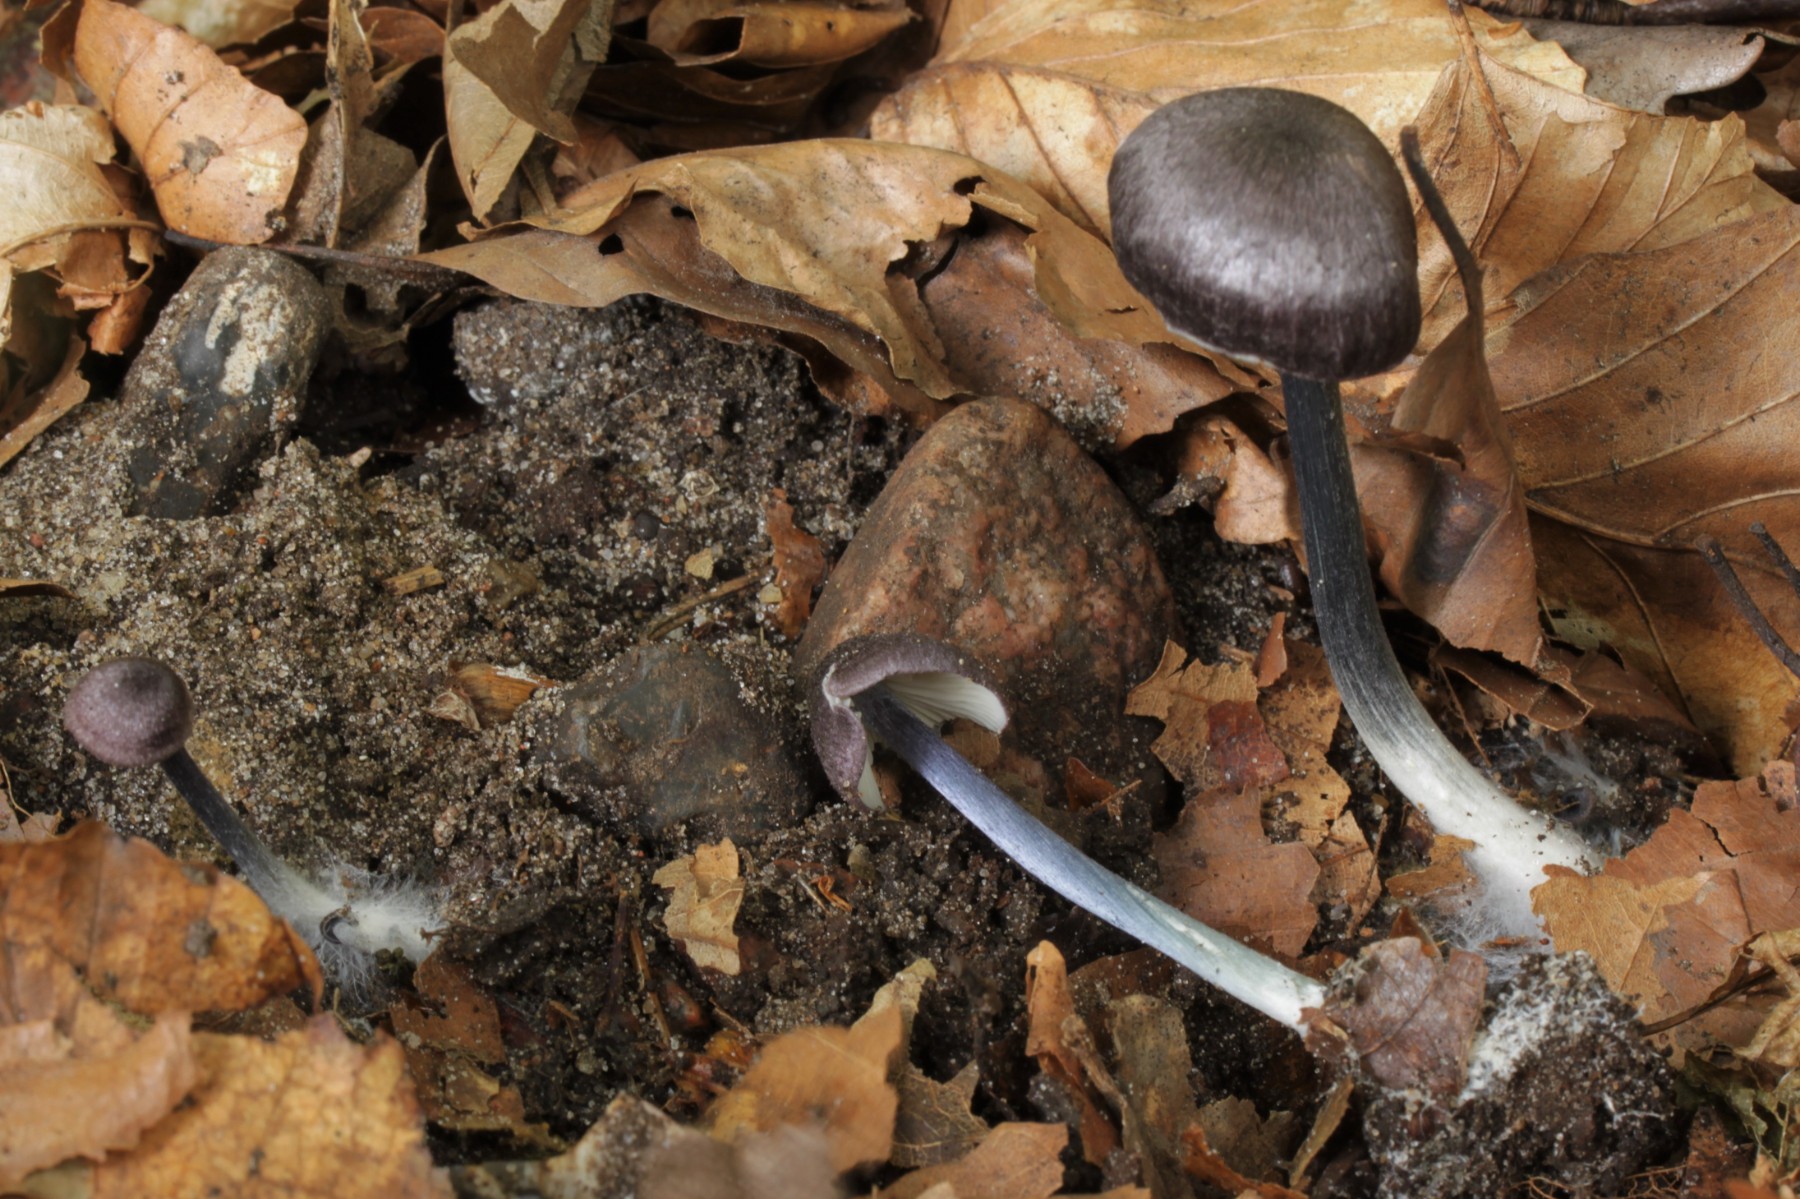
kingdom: Fungi
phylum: Basidiomycota
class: Agaricomycetes
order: Agaricales
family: Entolomataceae
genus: Entoloma
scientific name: Entoloma lampropus
